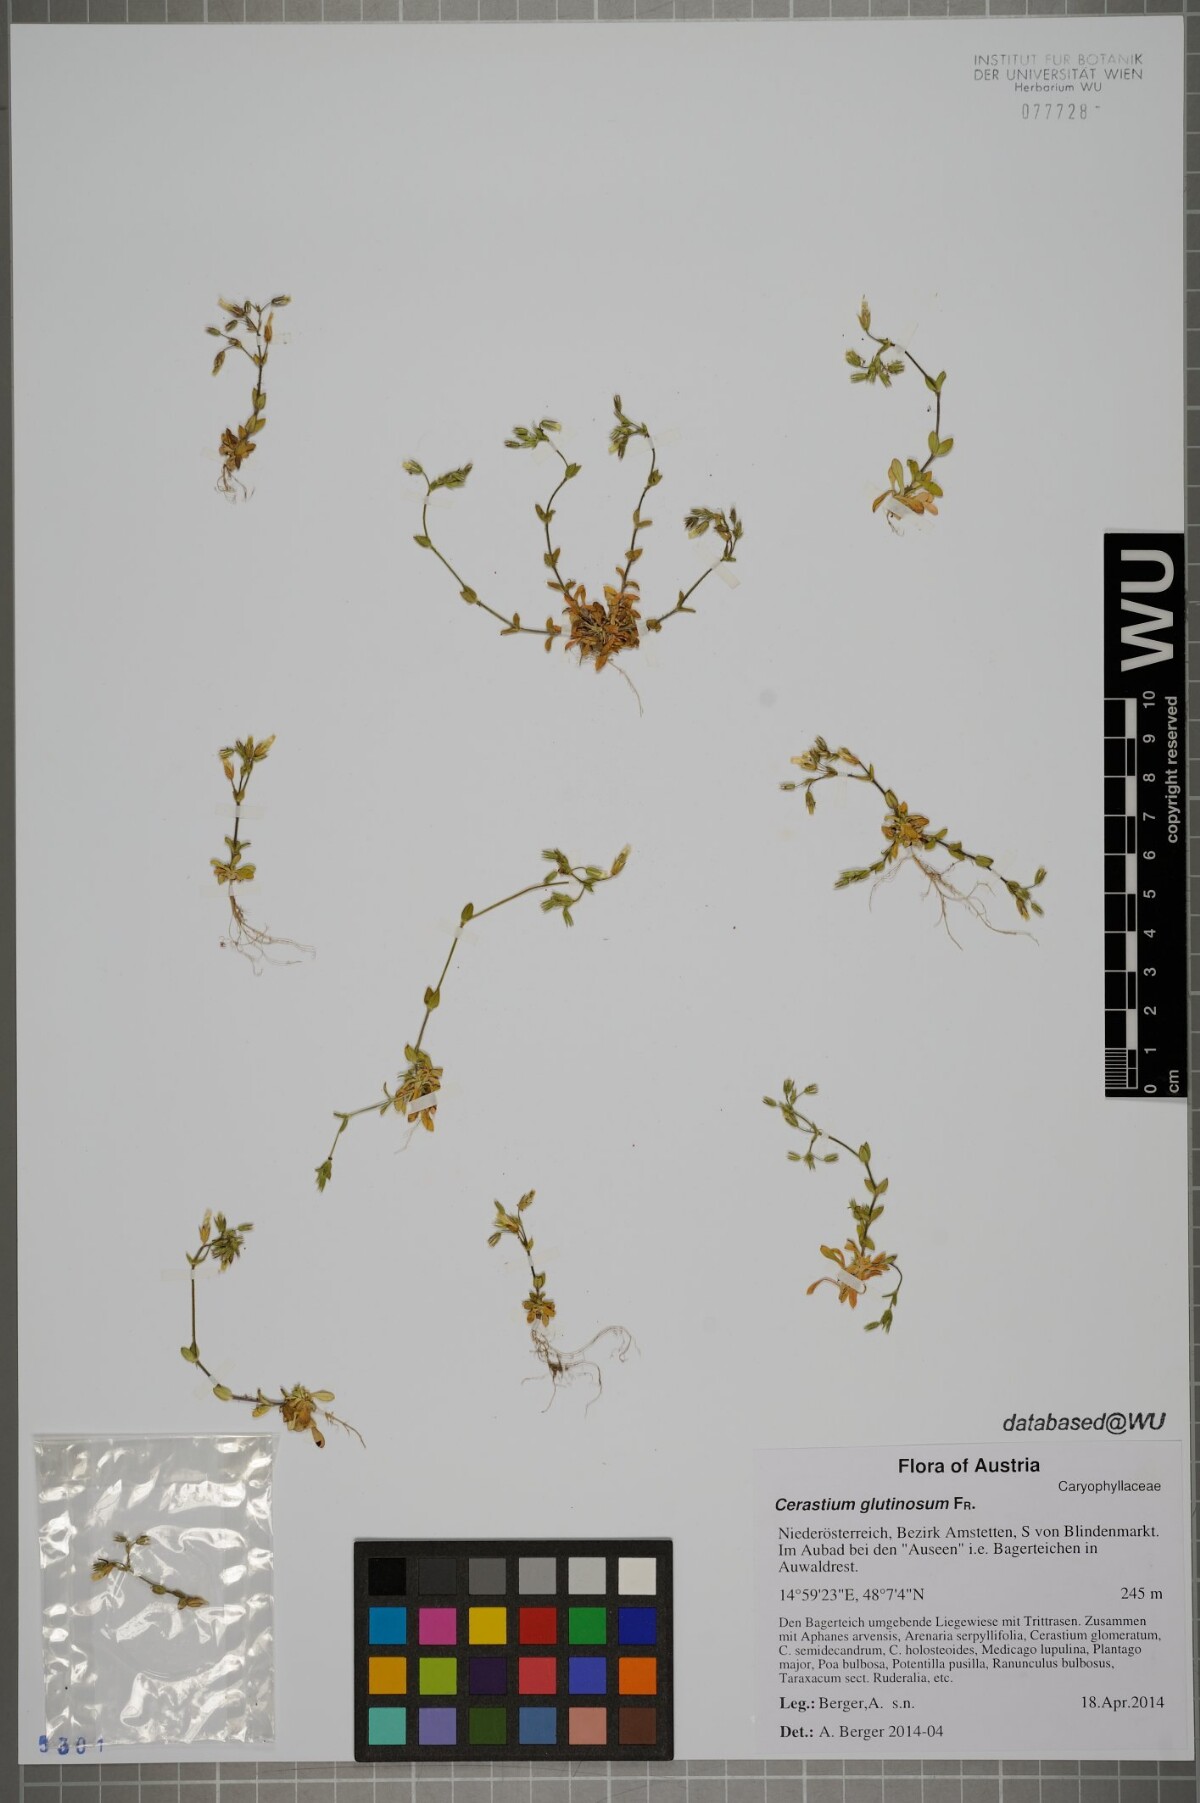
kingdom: Plantae
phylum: Tracheophyta
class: Magnoliopsida
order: Caryophyllales
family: Caryophyllaceae
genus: Cerastium
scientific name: Cerastium glutinosum
